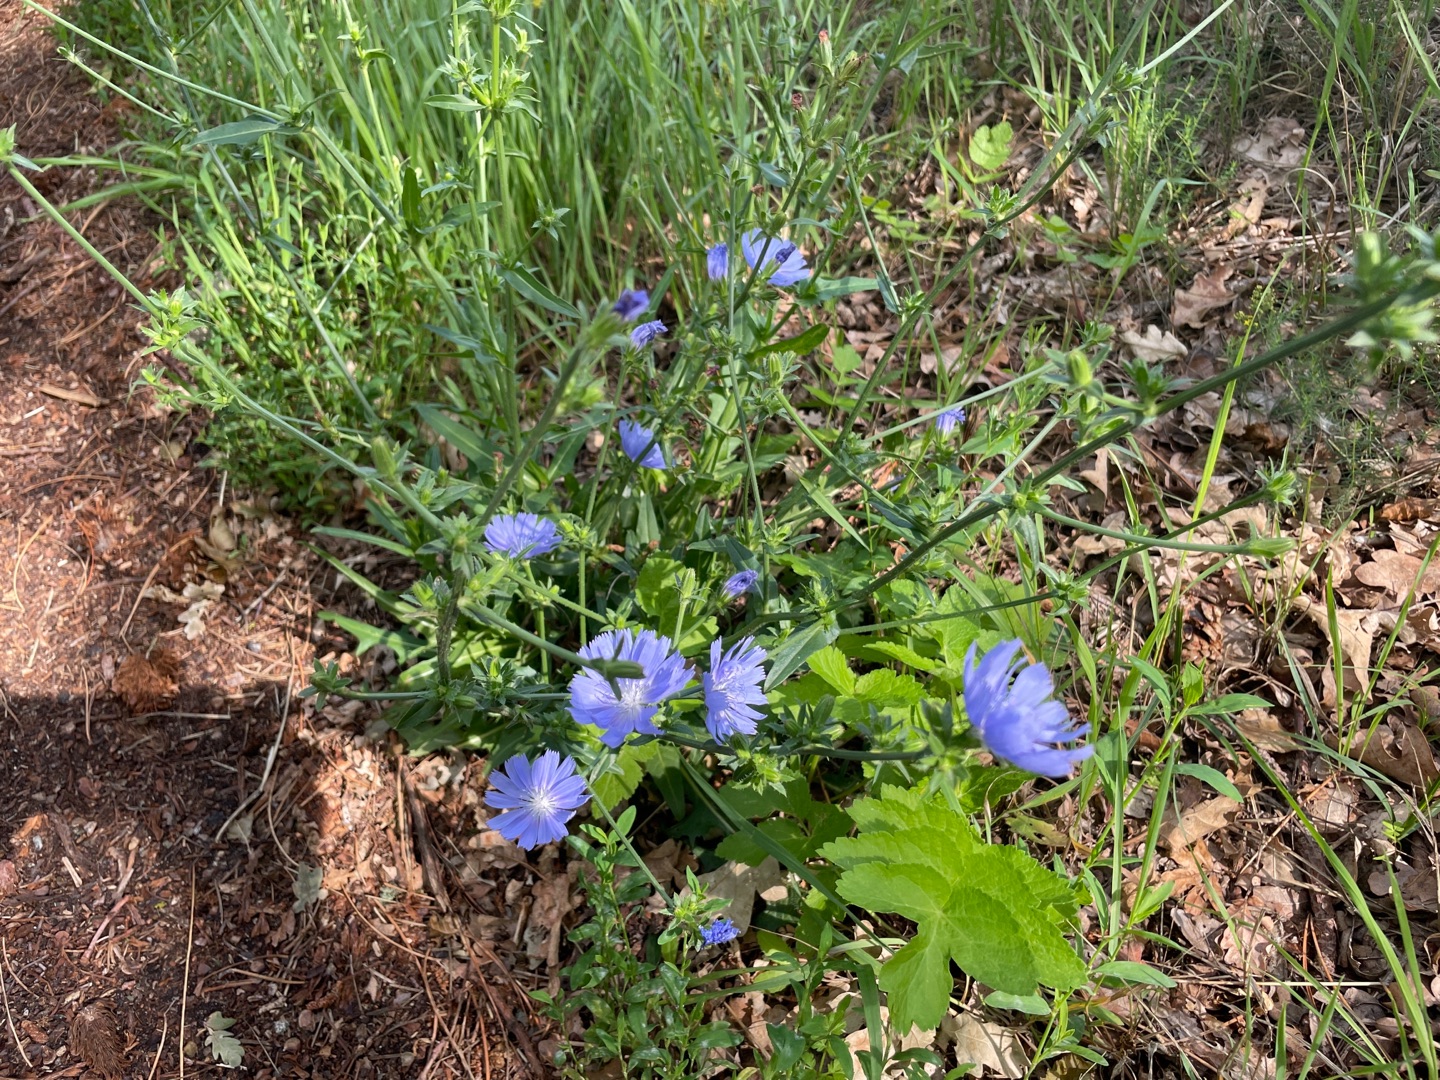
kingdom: Plantae
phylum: Tracheophyta
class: Magnoliopsida
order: Asterales
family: Asteraceae
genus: Cichorium
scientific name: Cichorium intybus
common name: Cikorie
